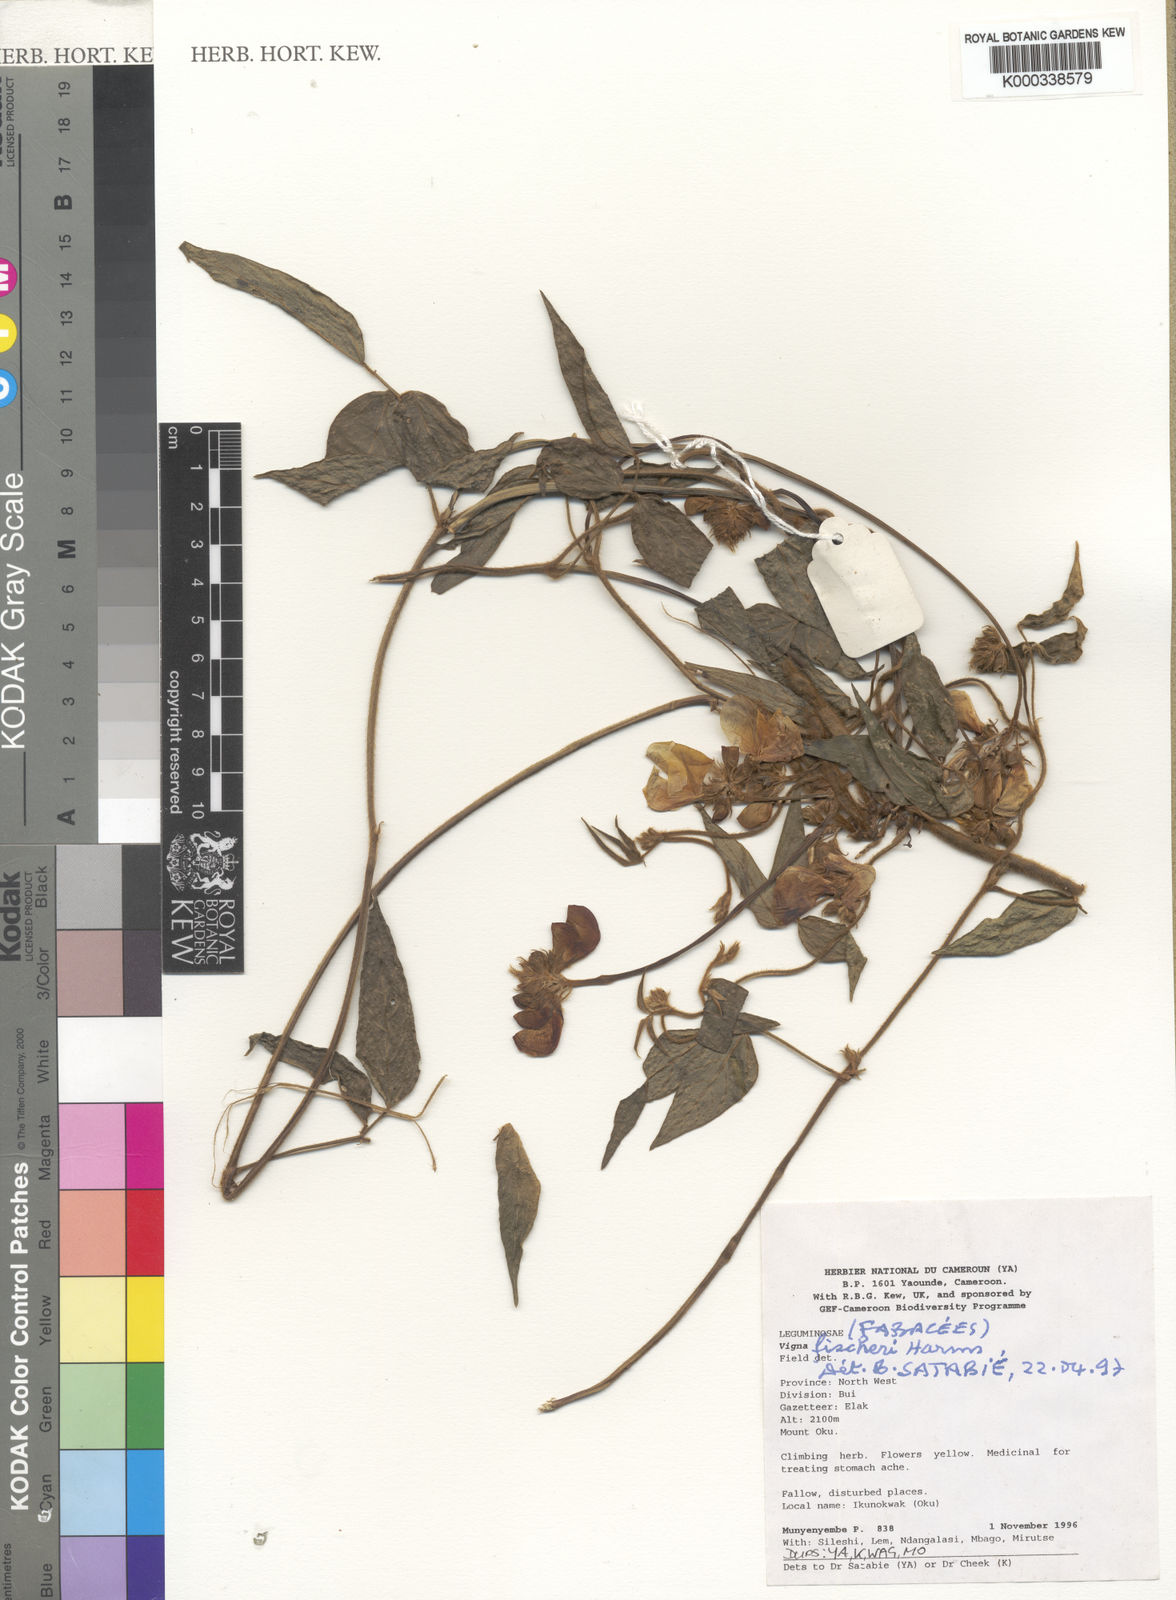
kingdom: Plantae
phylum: Tracheophyta
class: Magnoliopsida
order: Fabales
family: Fabaceae
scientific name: Fabaceae
